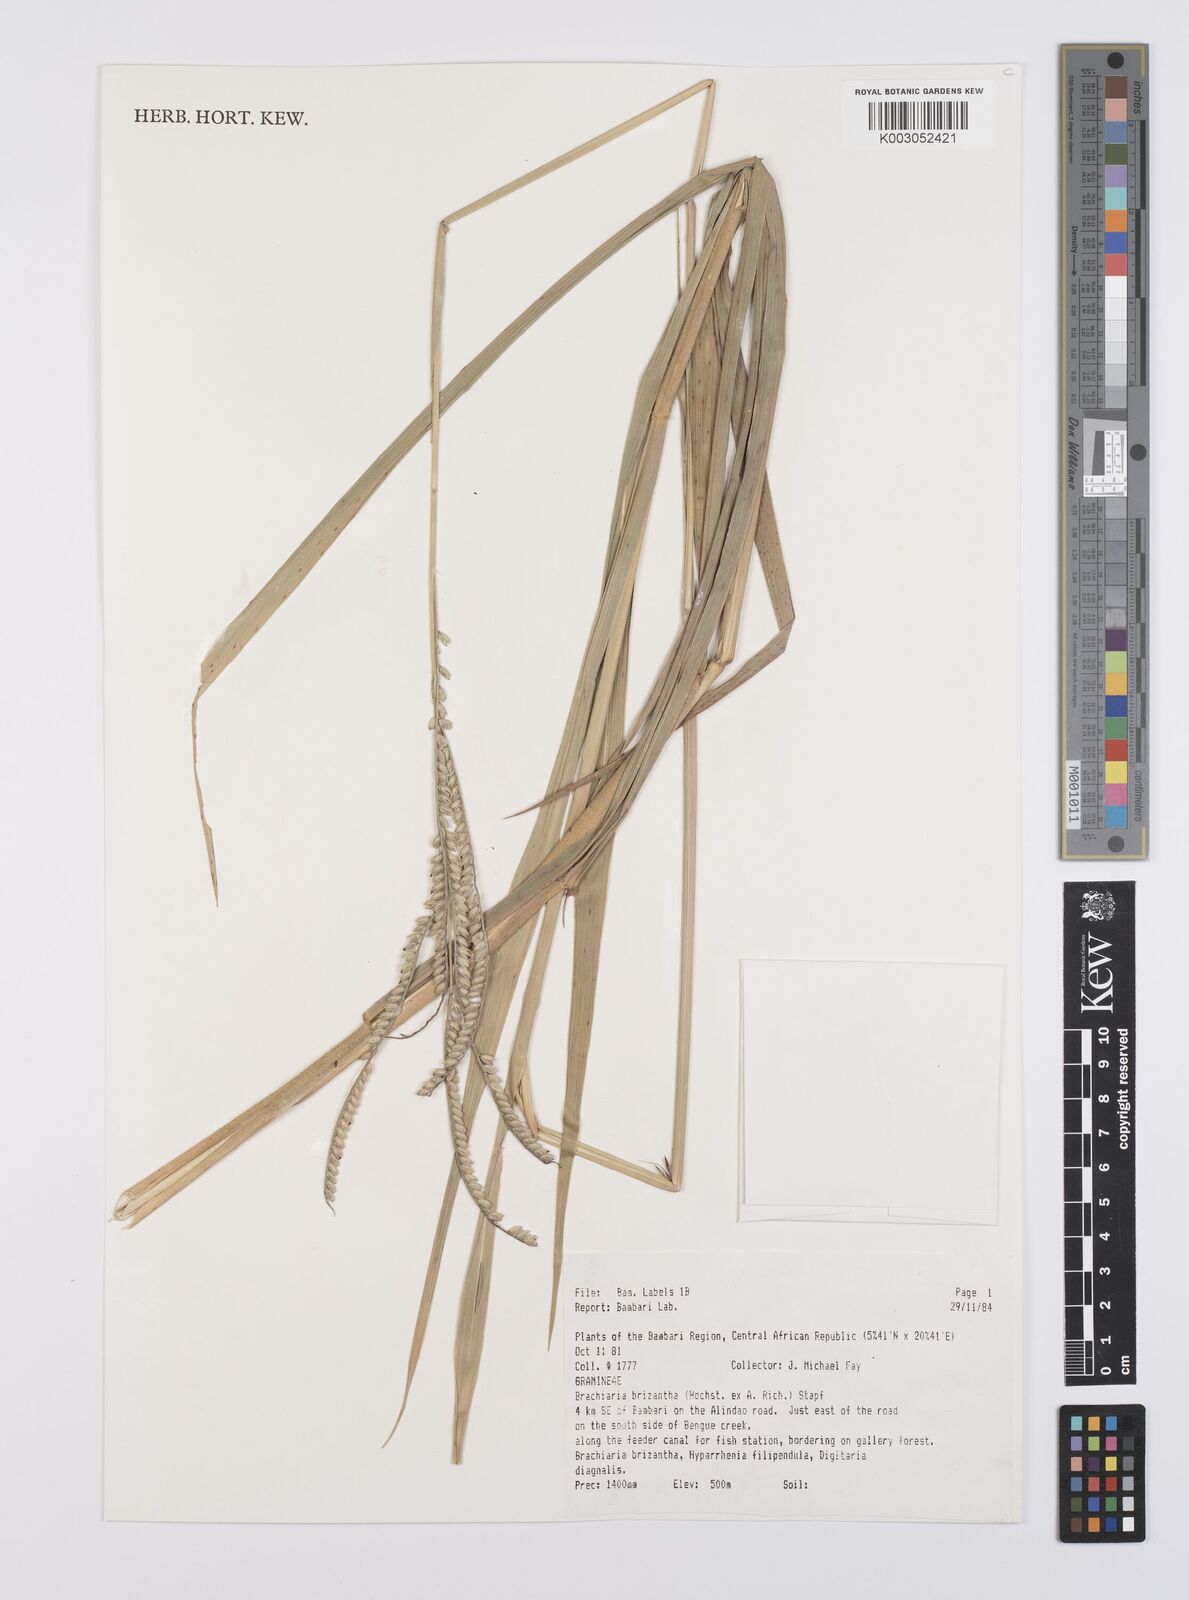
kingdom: Plantae
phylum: Tracheophyta
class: Liliopsida
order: Poales
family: Poaceae
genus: Urochloa
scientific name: Urochloa brizantha
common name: Palisade signalgrass
